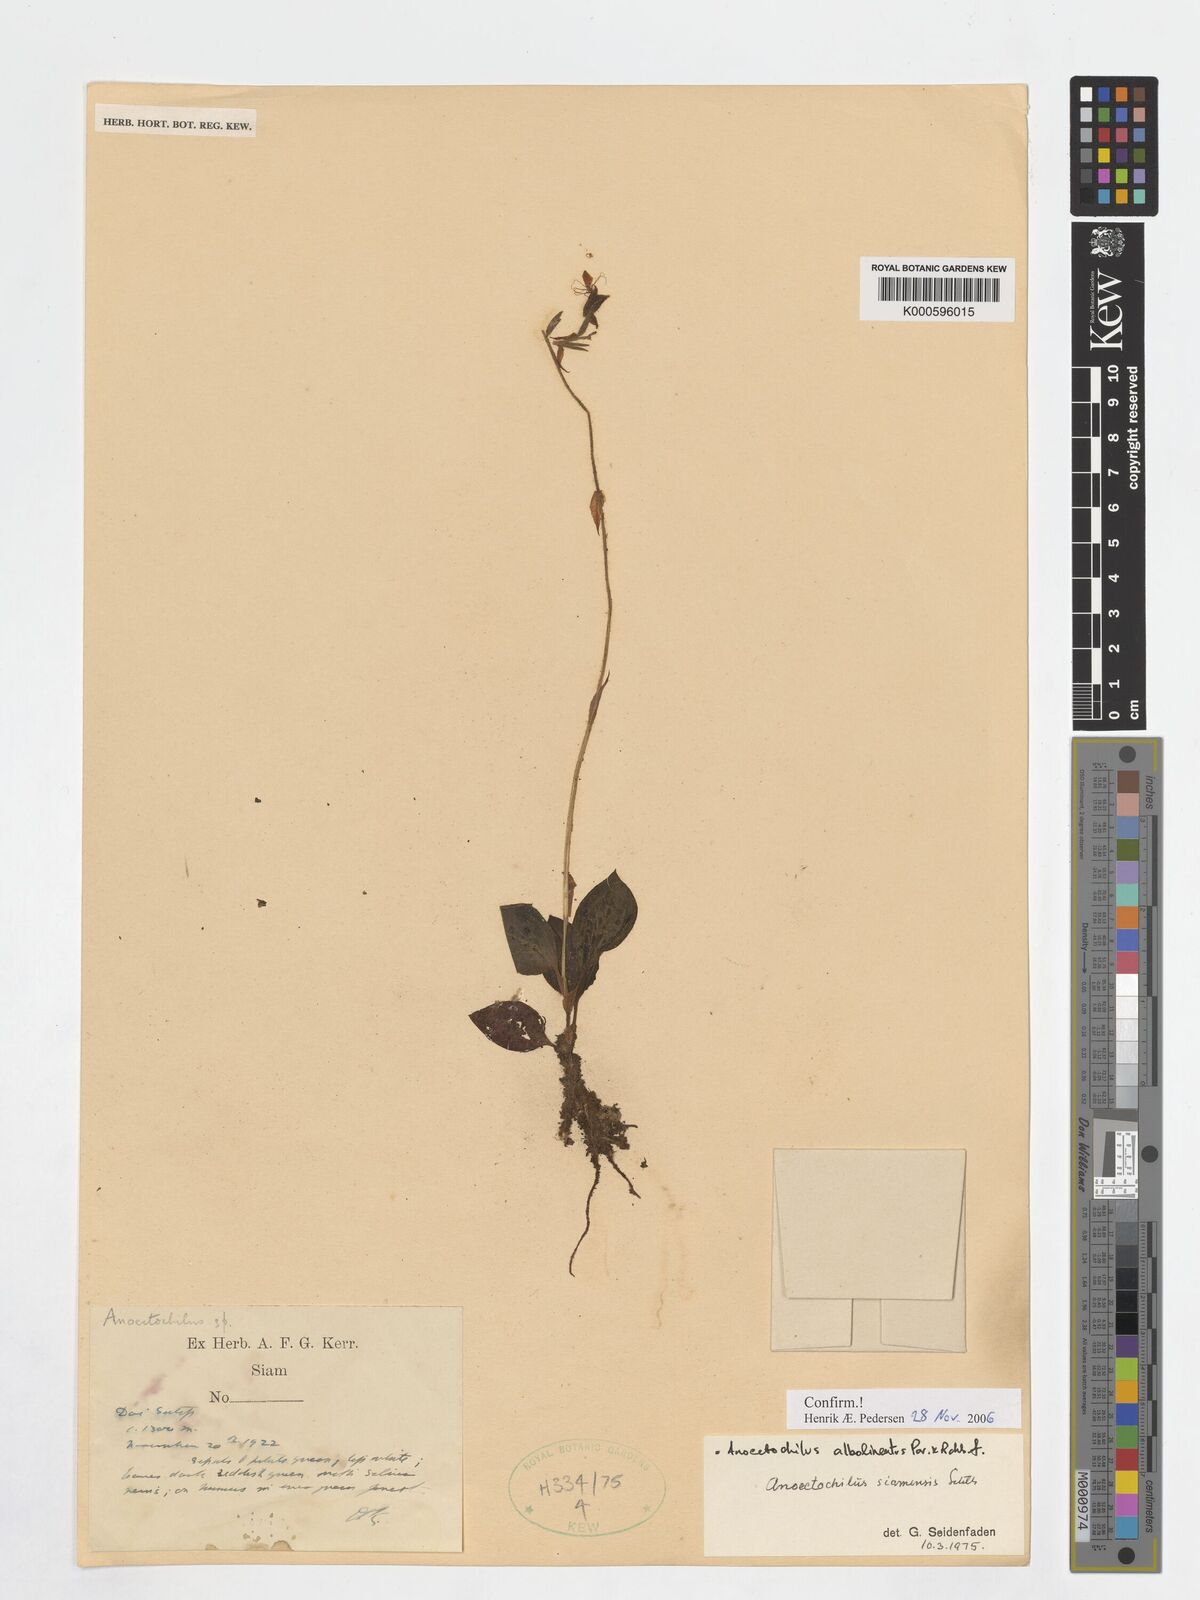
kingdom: Plantae
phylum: Tracheophyta
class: Liliopsida
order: Asparagales
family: Orchidaceae
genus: Anoectochilus
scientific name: Anoectochilus albolineatus
